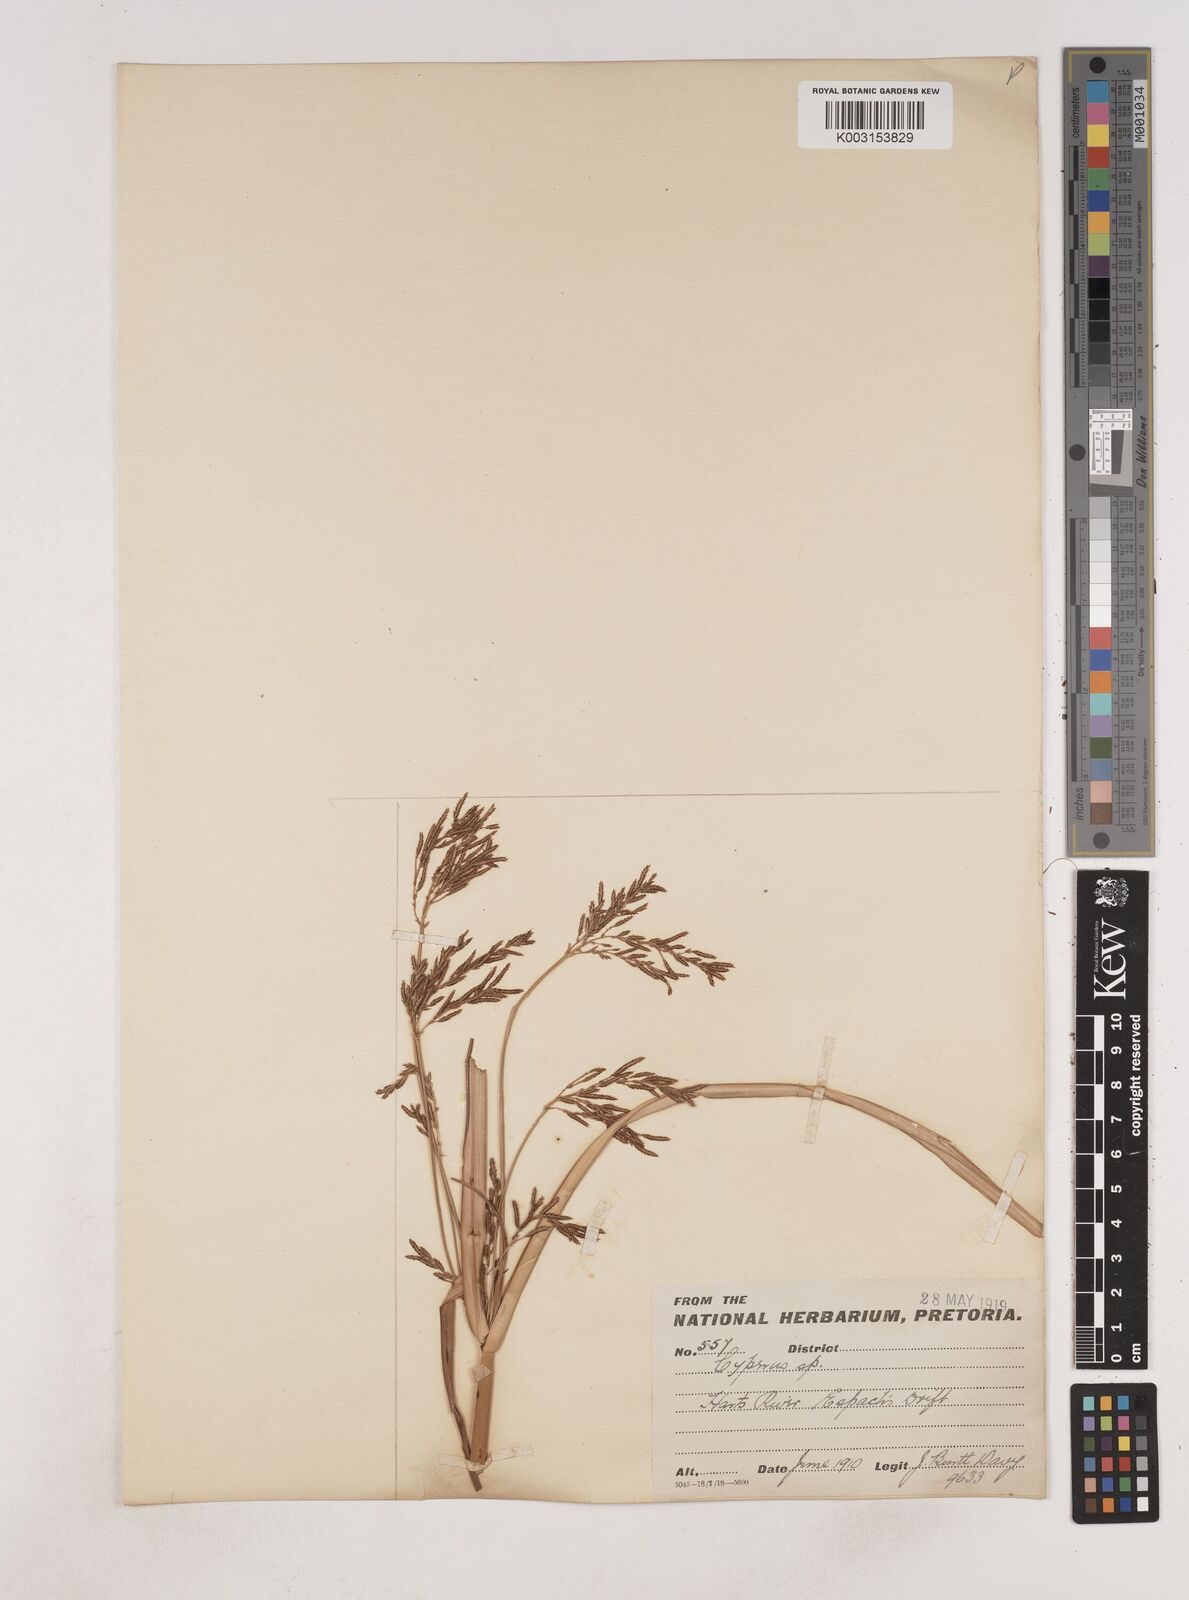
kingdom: Plantae
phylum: Tracheophyta
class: Liliopsida
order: Poales
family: Cyperaceae
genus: Cyperus
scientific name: Cyperus
